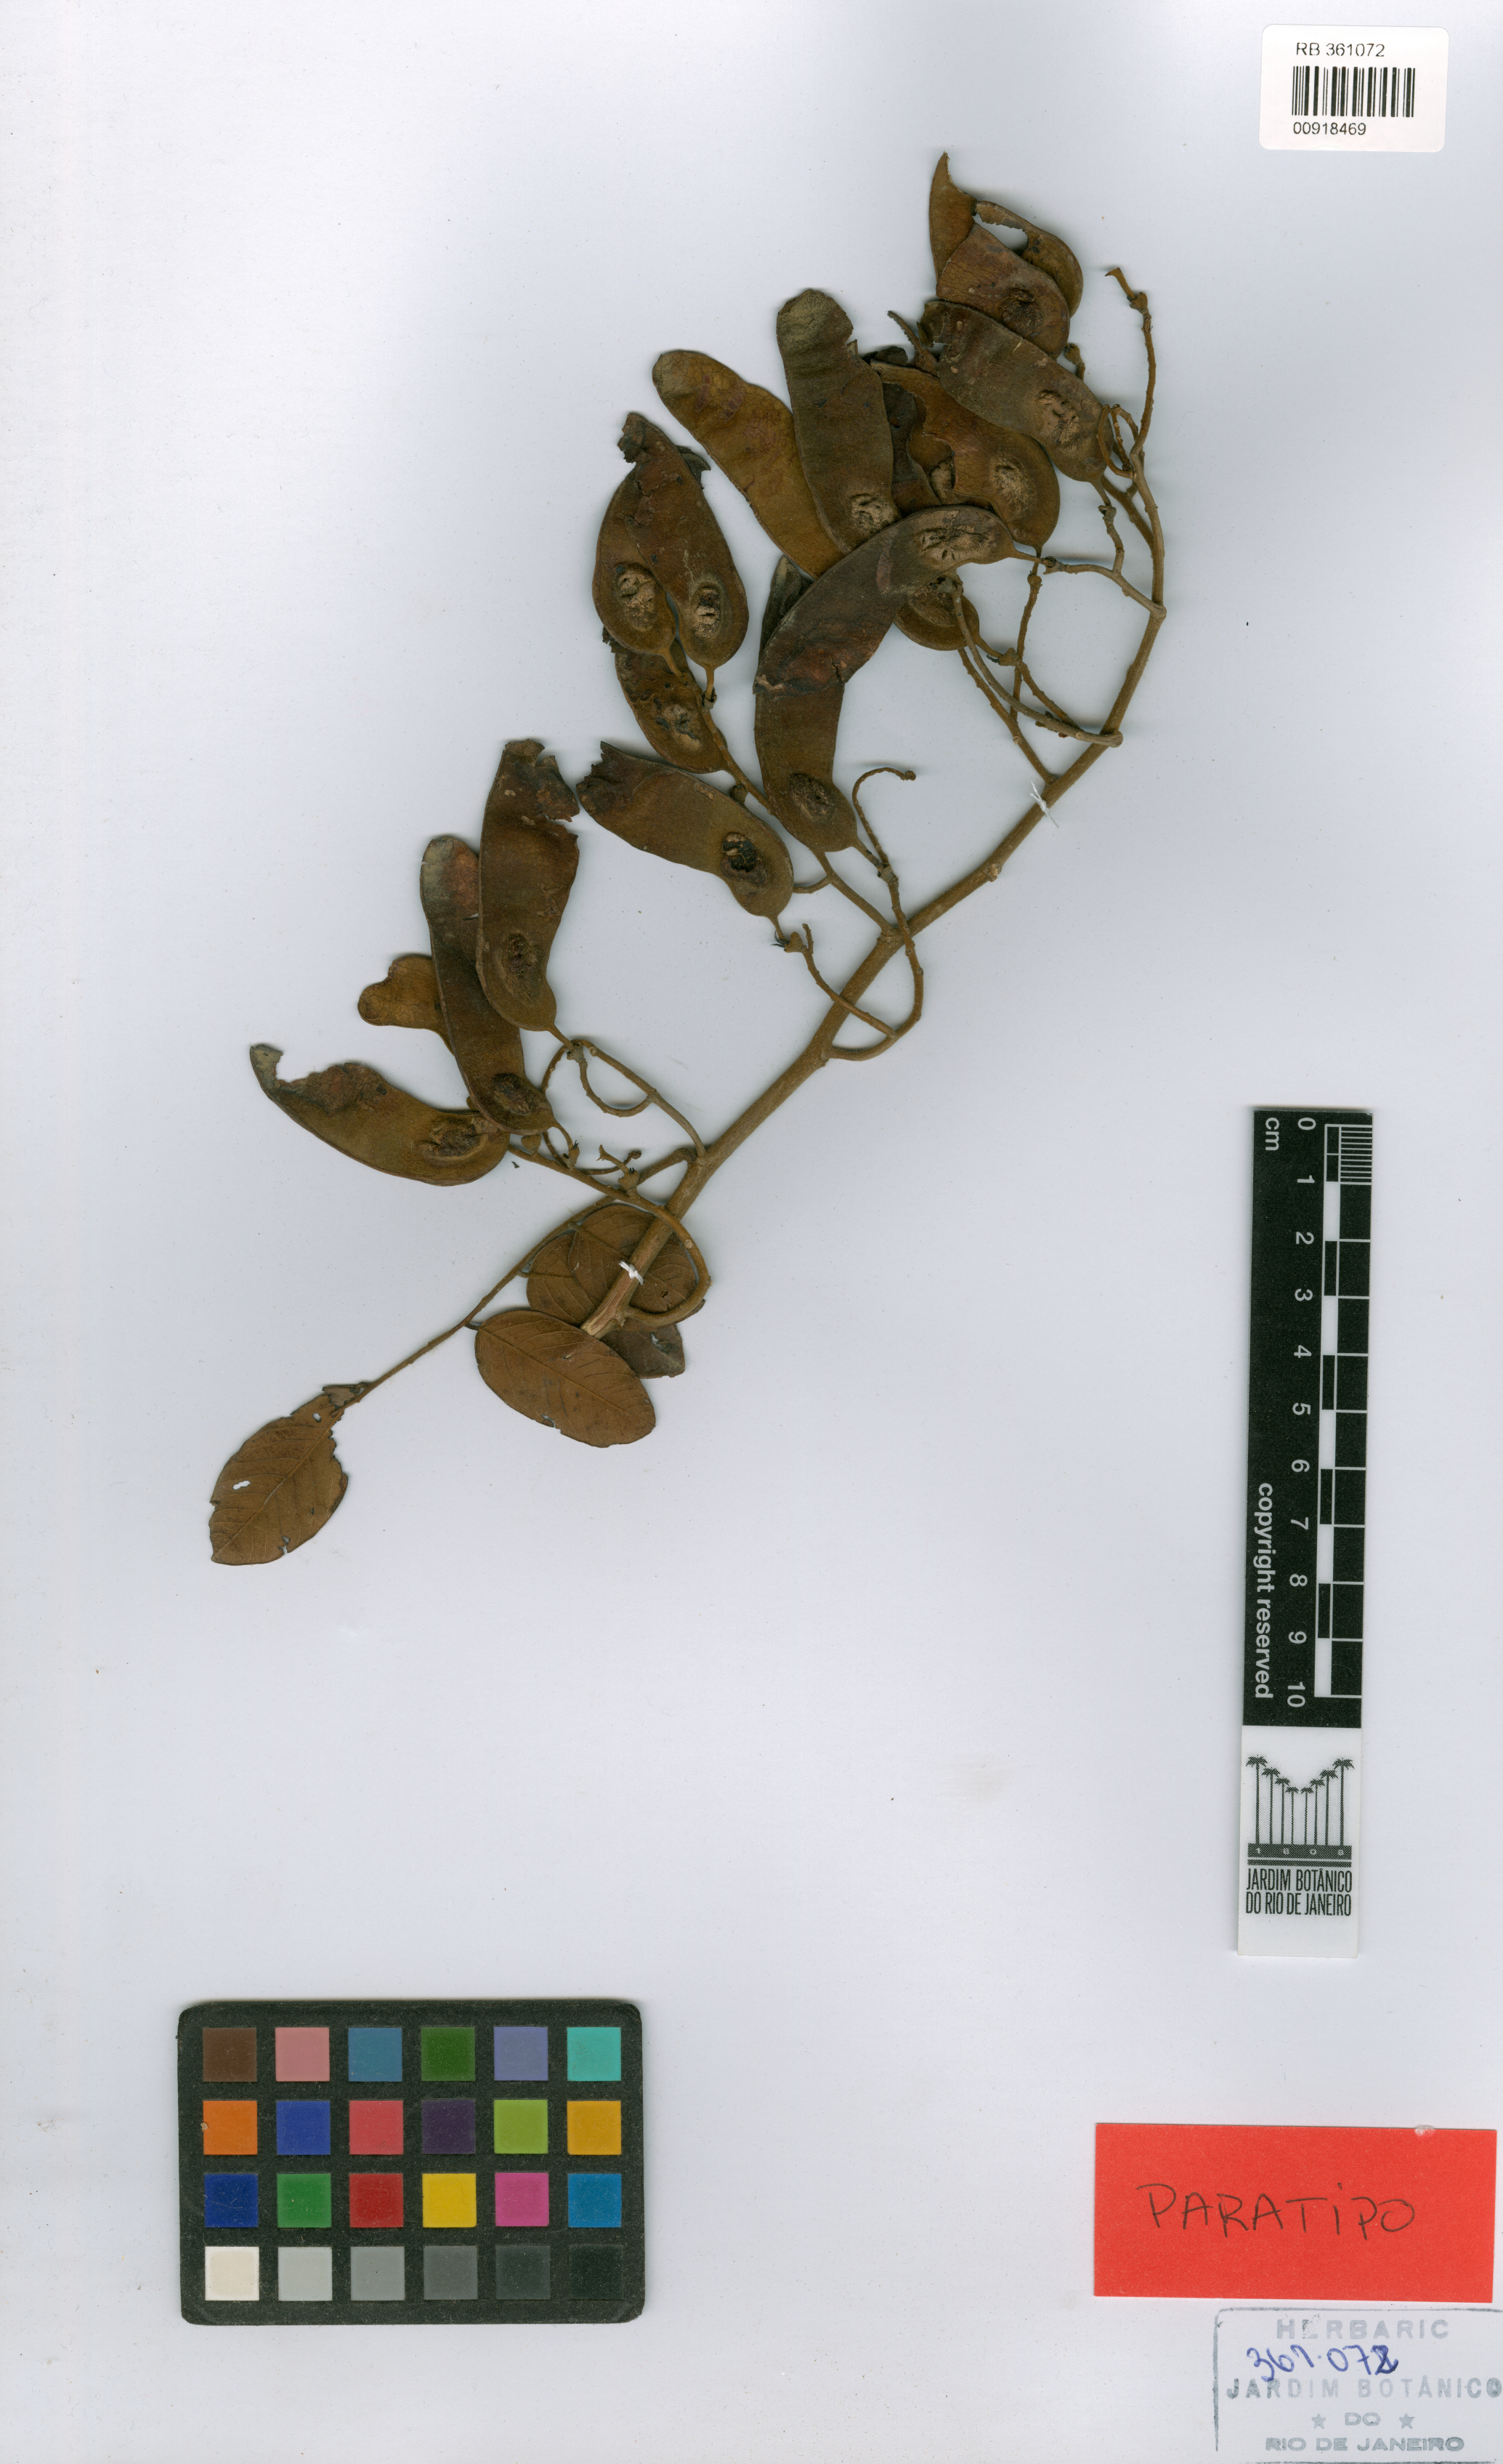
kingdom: Plantae
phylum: Tracheophyta
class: Magnoliopsida
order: Fabales
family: Fabaceae
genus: Machaerium
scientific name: Machaerium robsonianum
